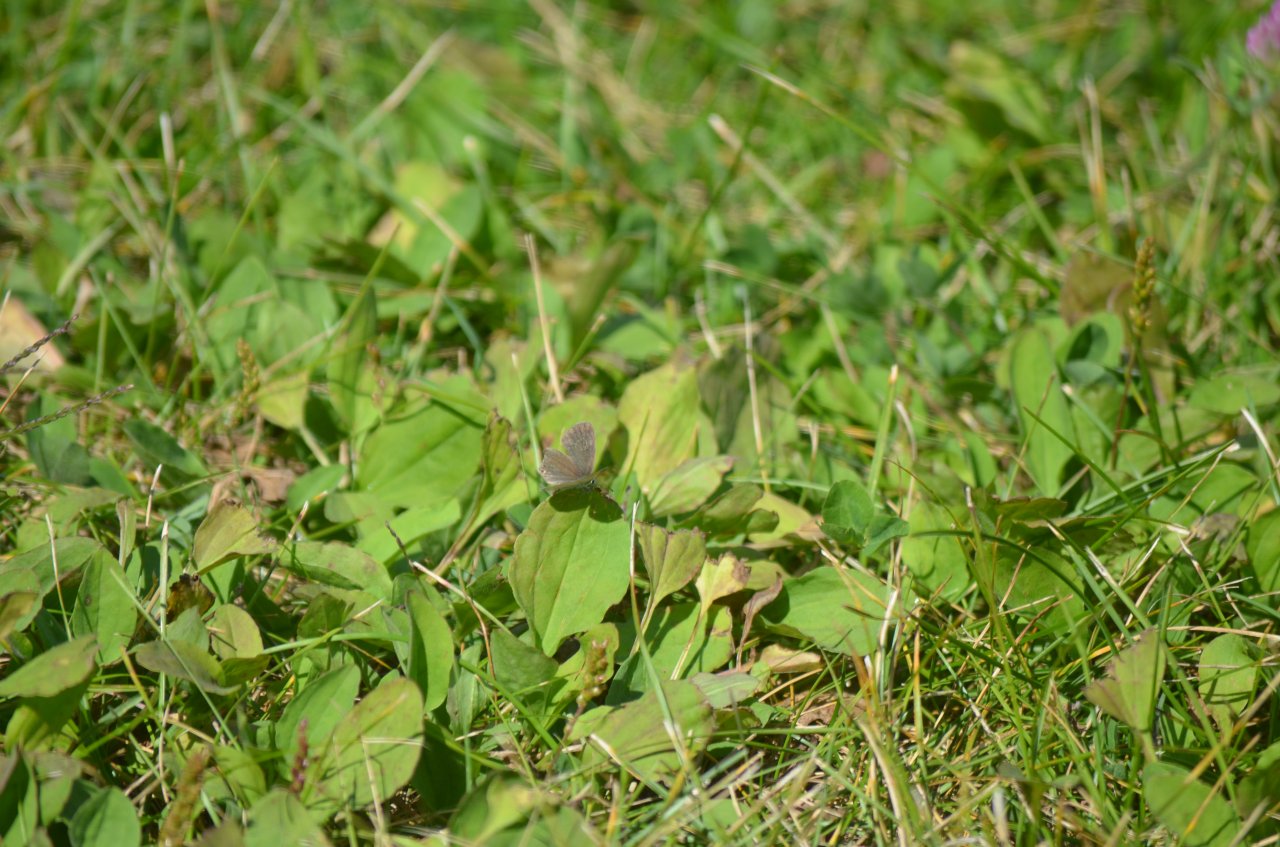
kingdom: Animalia
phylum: Arthropoda
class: Insecta
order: Lepidoptera
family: Lycaenidae
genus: Elkalyce
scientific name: Elkalyce comyntas
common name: Eastern Tailed-Blue
